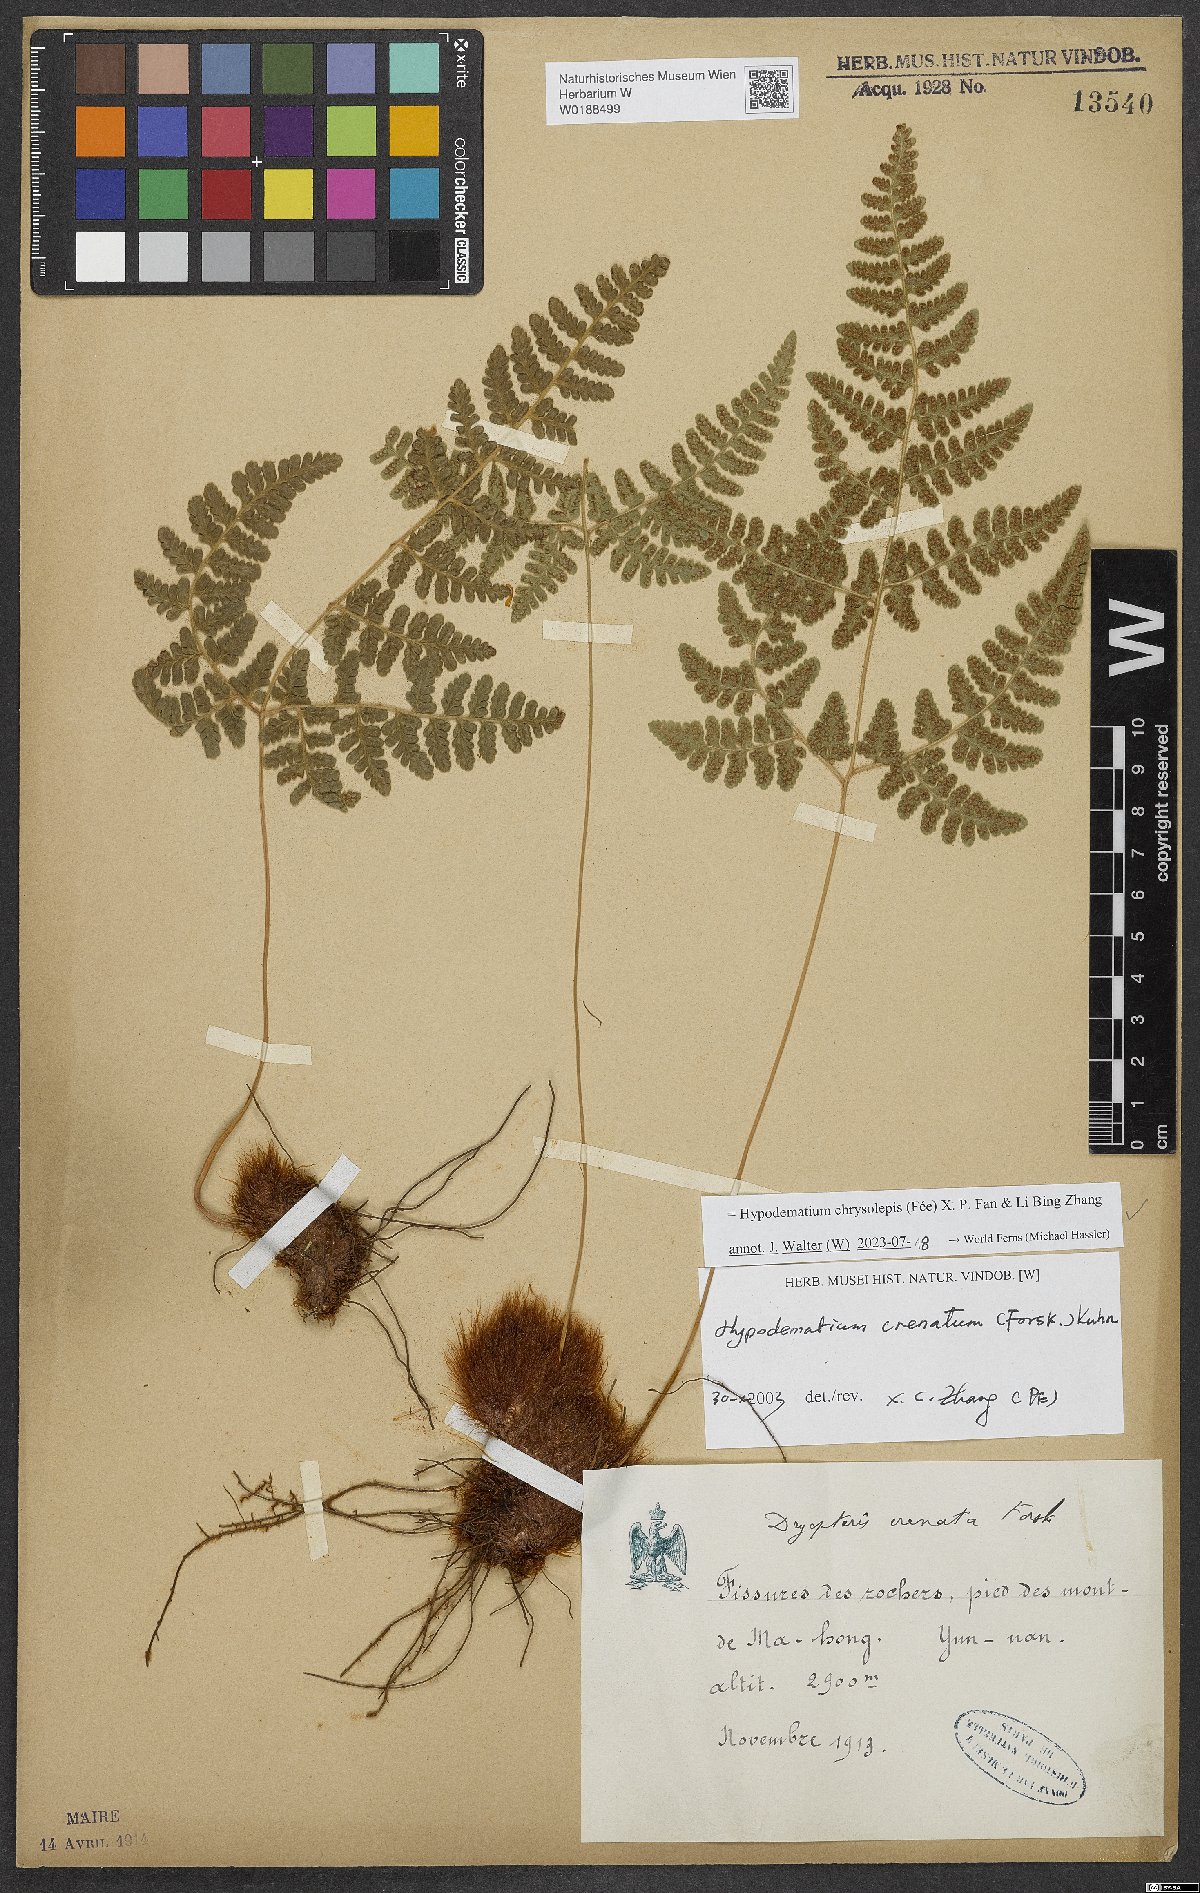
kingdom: Plantae
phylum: Tracheophyta
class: Polypodiopsida
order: Polypodiales
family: Hypodematiaceae
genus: Hypodematium
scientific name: Hypodematium chrysolepis
